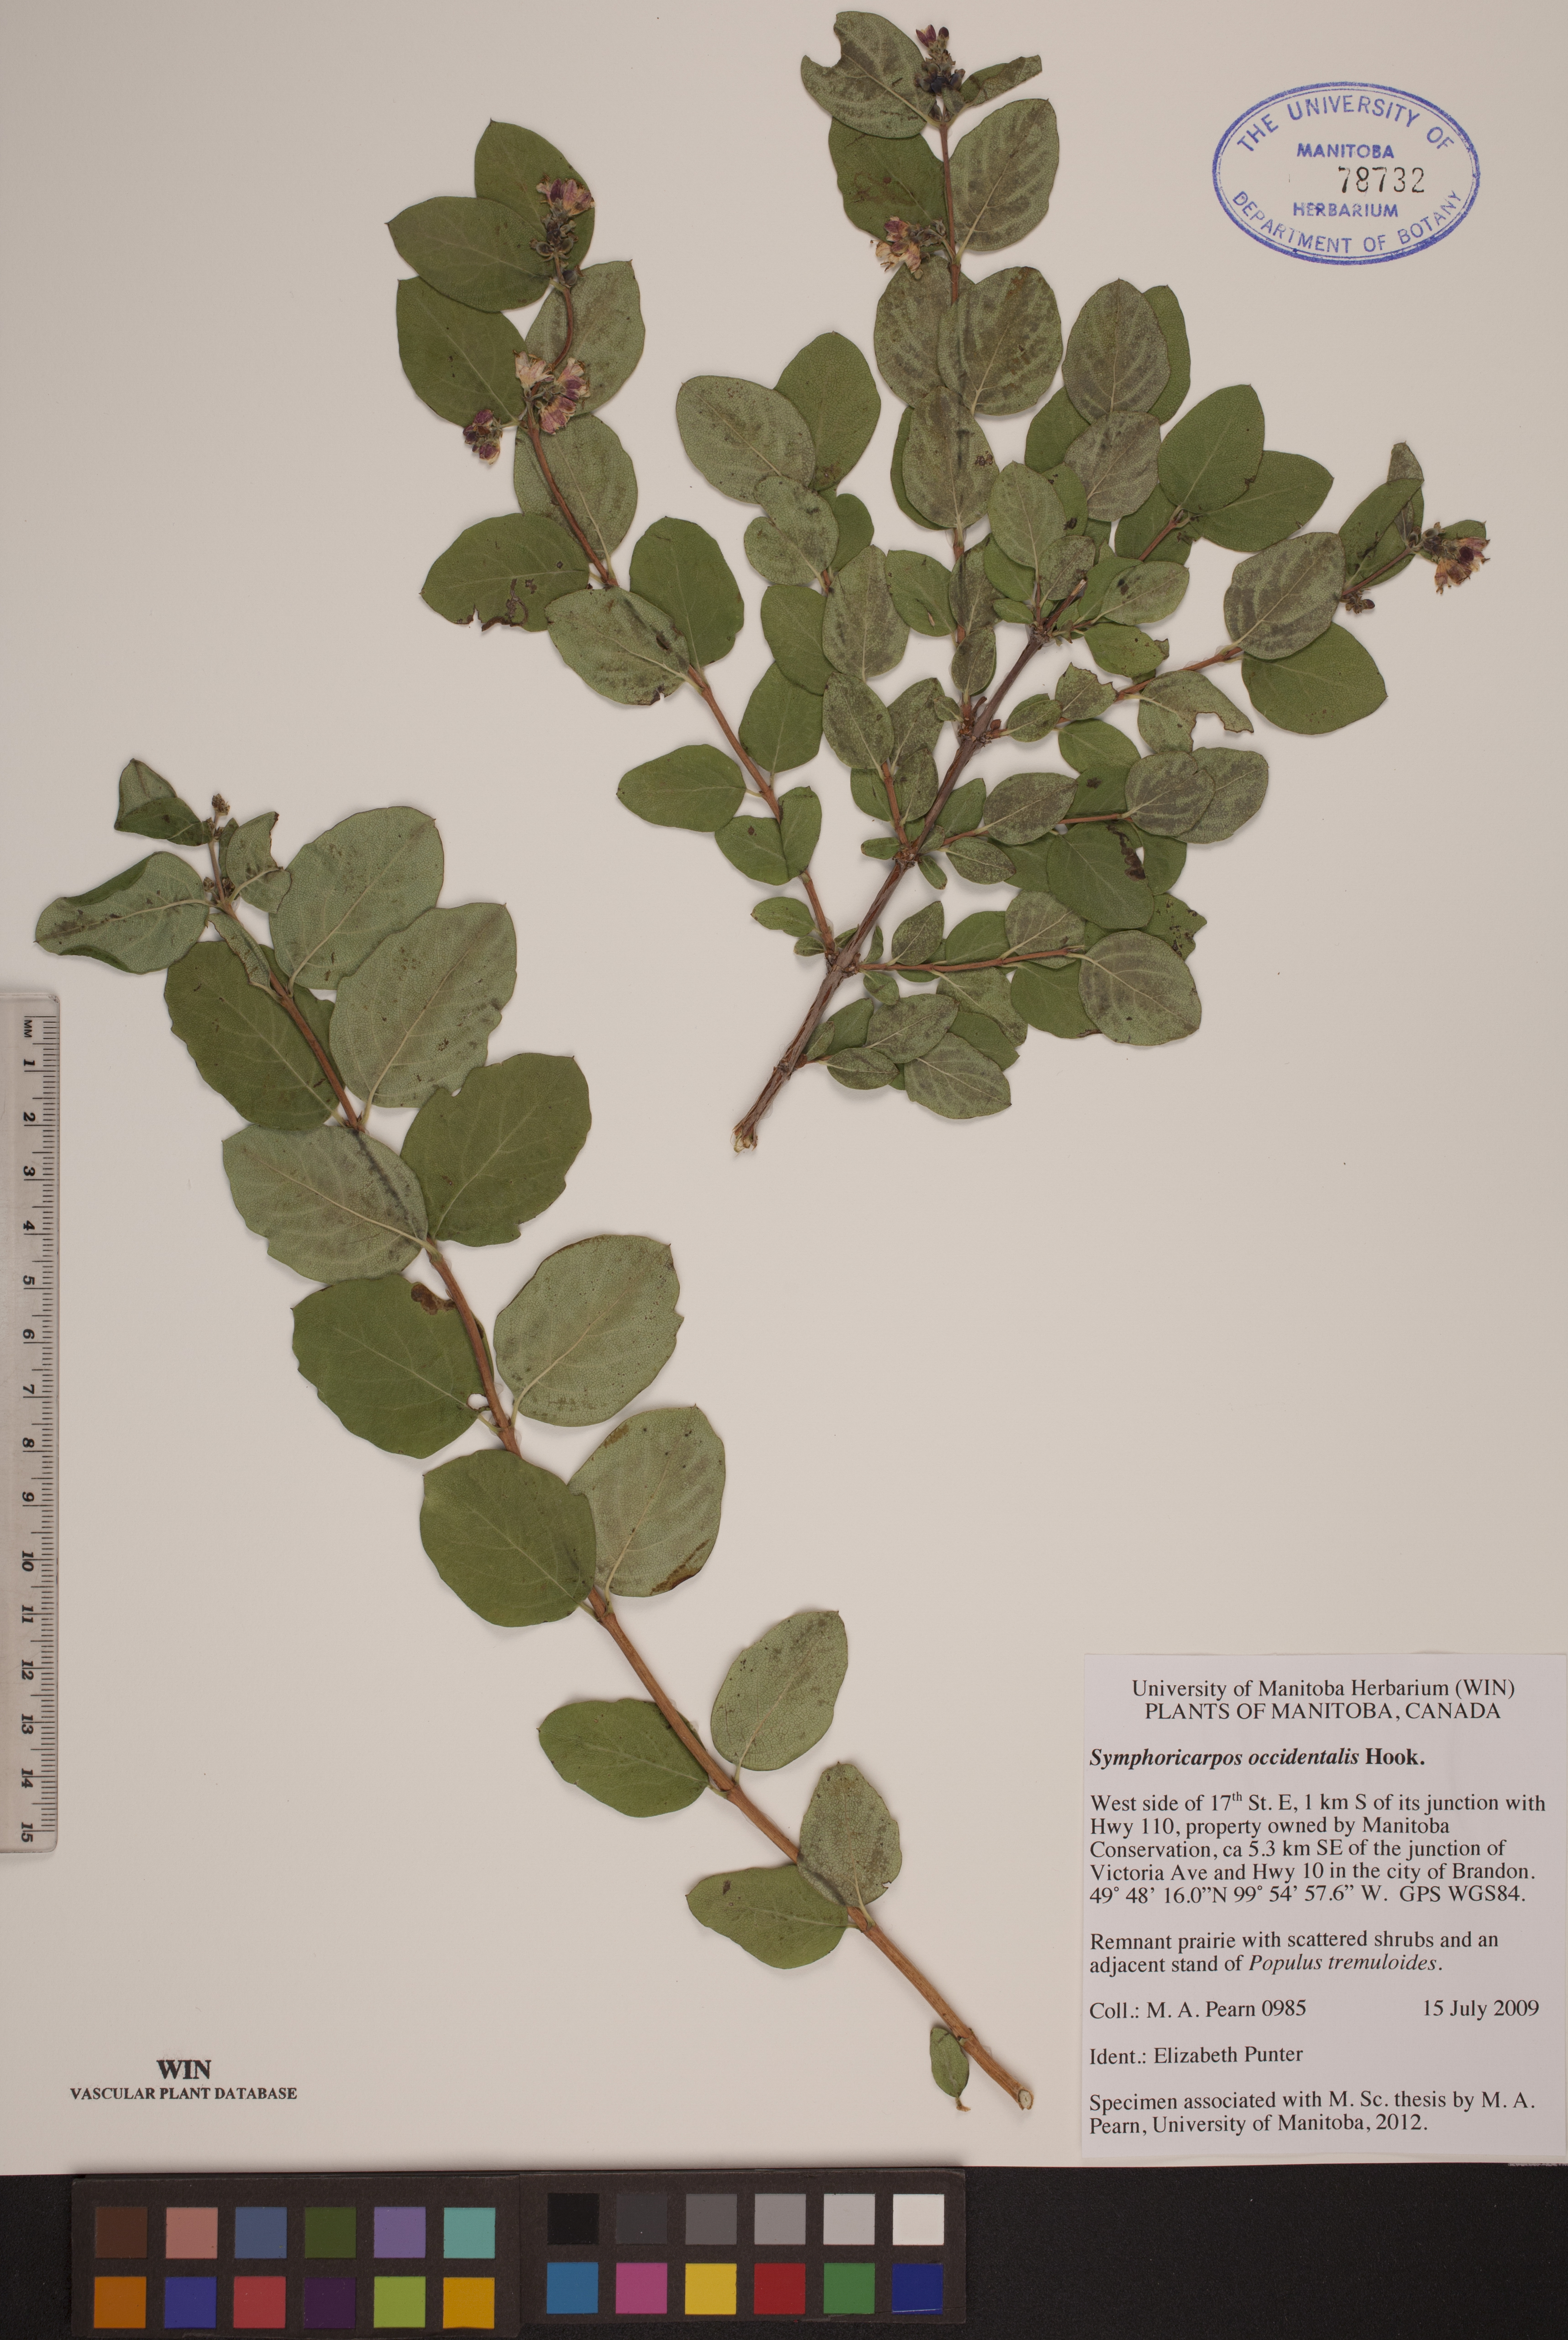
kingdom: Plantae
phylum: Tracheophyta
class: Magnoliopsida
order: Dipsacales
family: Caprifoliaceae
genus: Symphoricarpos
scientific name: Symphoricarpos occidentalis
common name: Wolfberry
